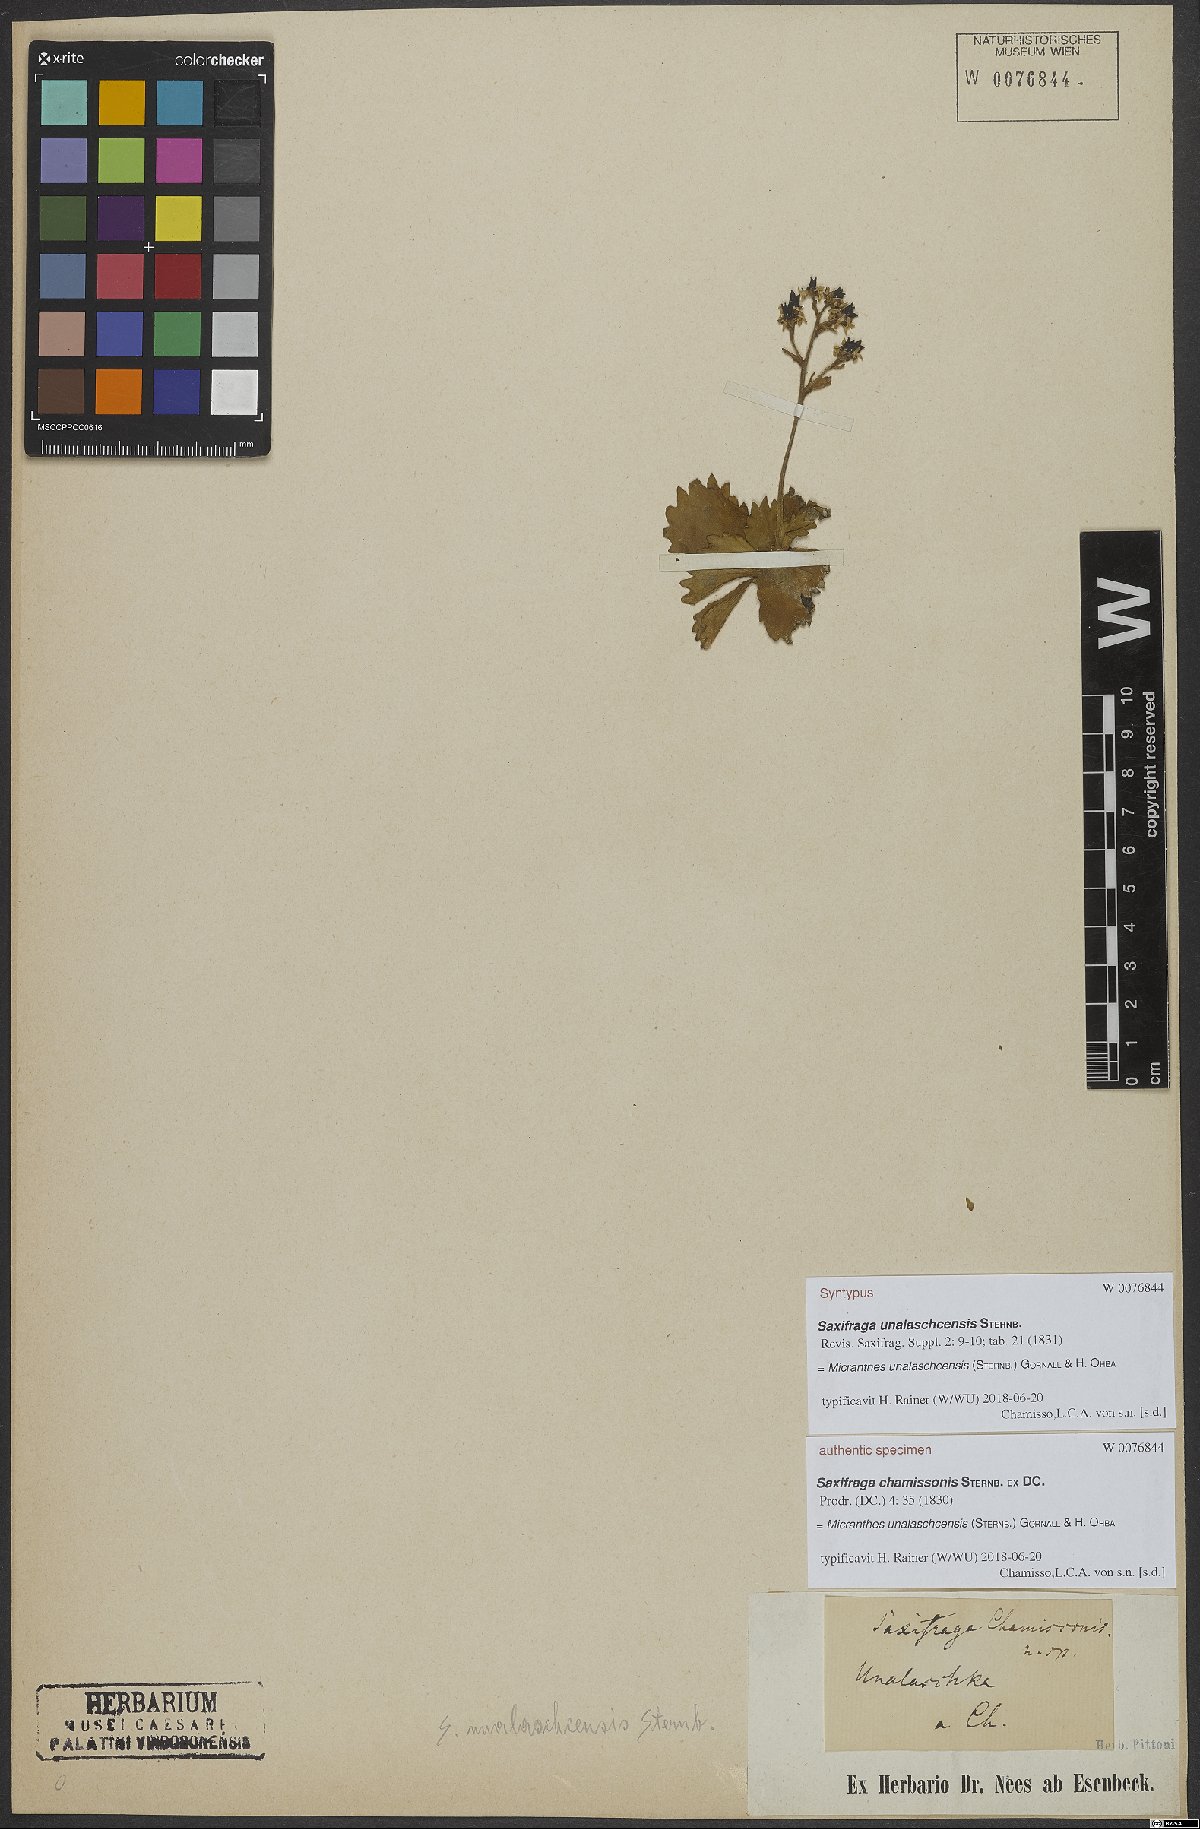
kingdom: Plantae
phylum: Tracheophyta
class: Magnoliopsida
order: Saxifragales
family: Saxifragaceae
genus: Micranthes
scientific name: Micranthes unalaschcensis
